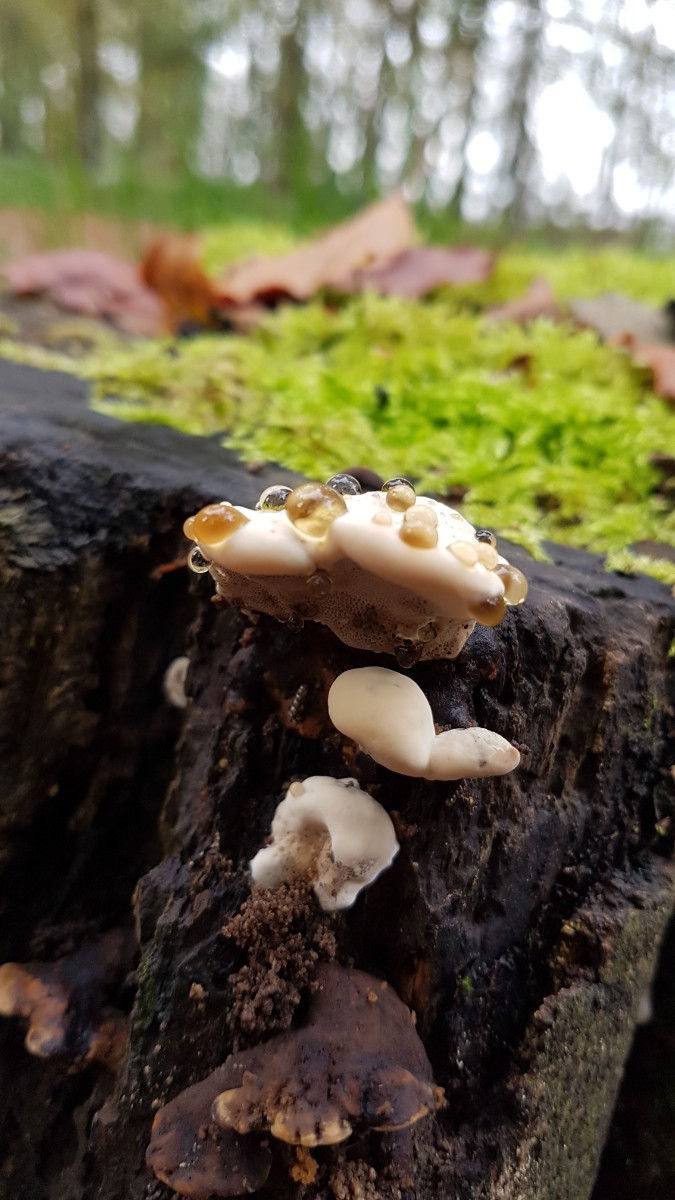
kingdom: Fungi
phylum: Basidiomycota
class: Agaricomycetes
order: Polyporales
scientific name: Polyporales
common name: poresvampordenen
